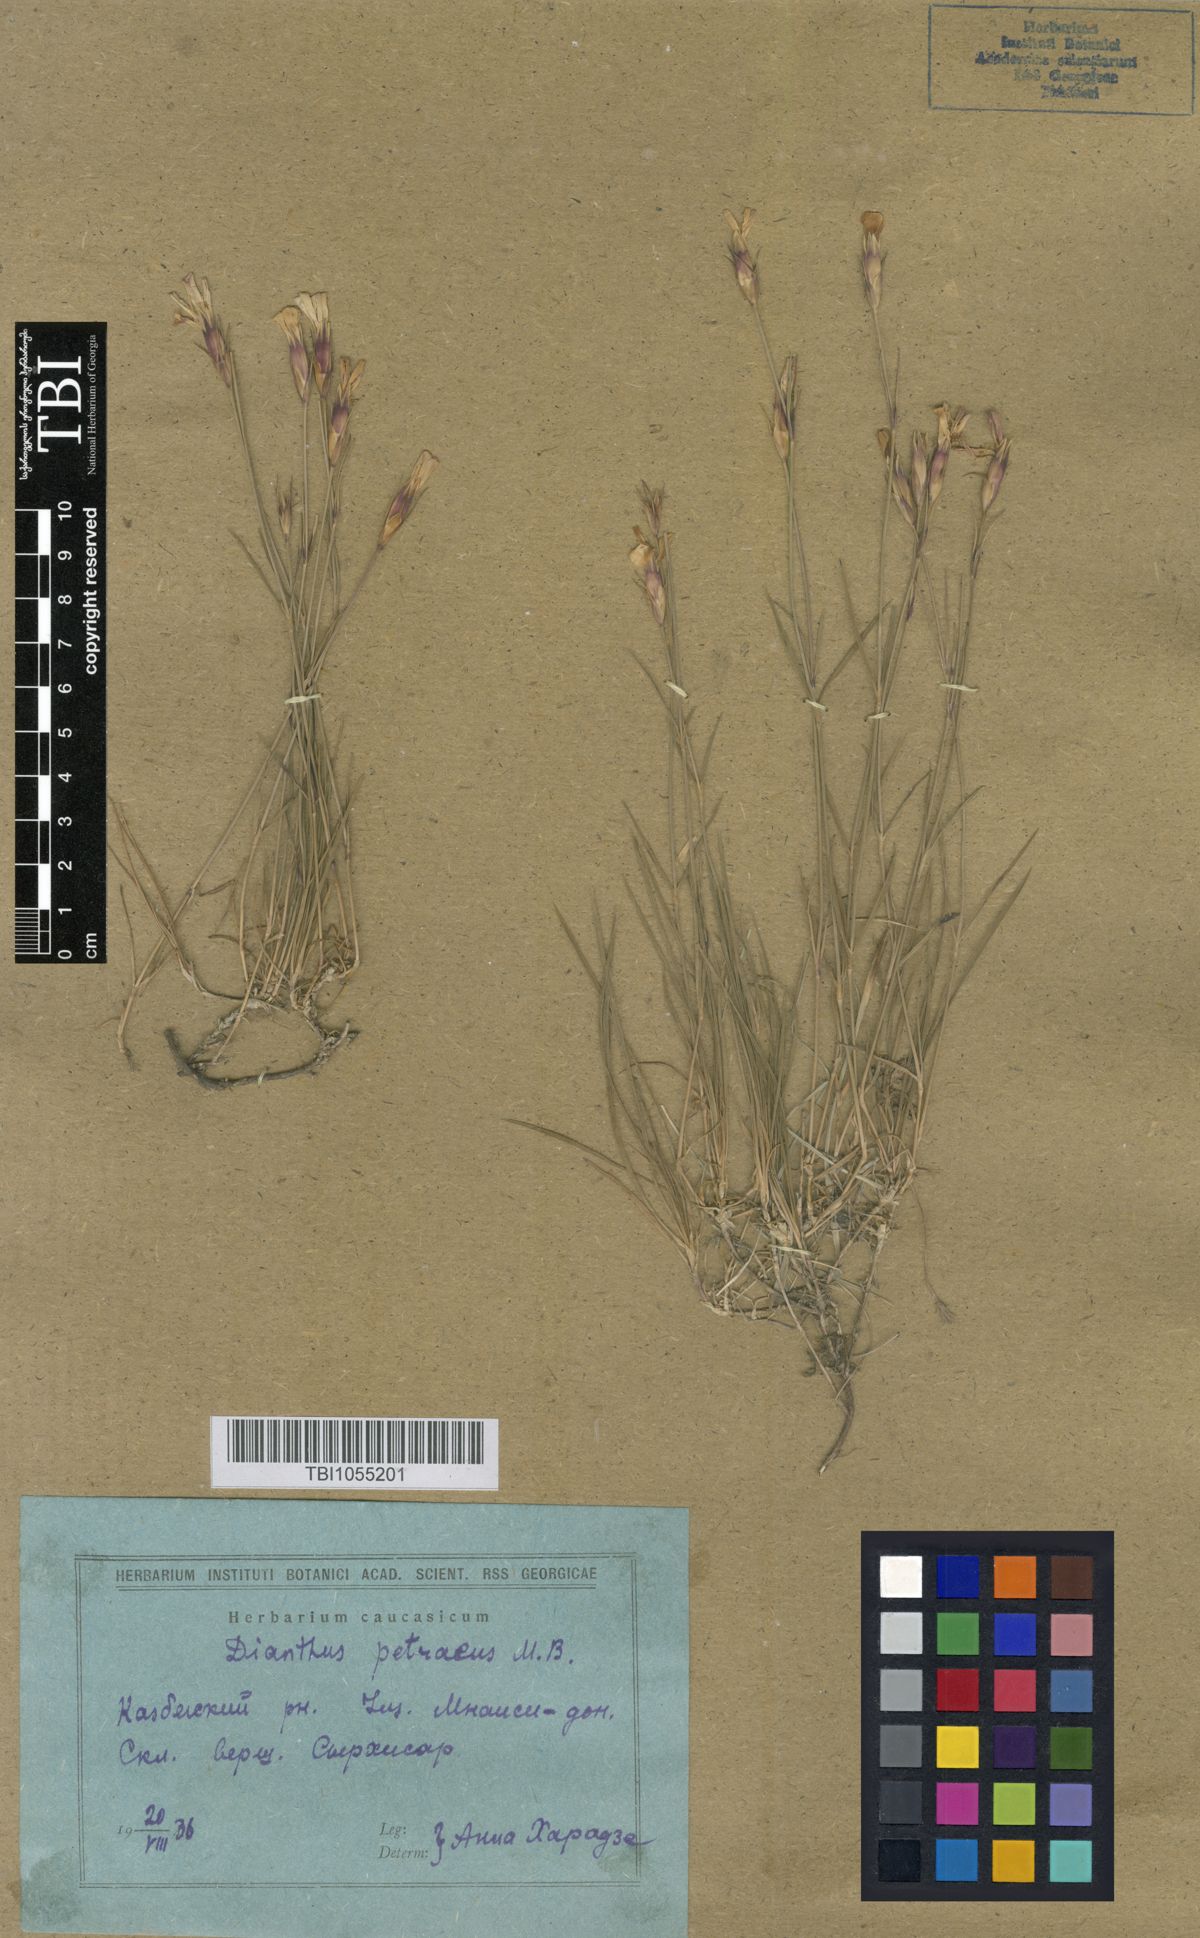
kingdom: Plantae
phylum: Tracheophyta
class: Magnoliopsida
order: Caryophyllales
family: Caryophyllaceae
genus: Dianthus
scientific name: Dianthus cretaceus
